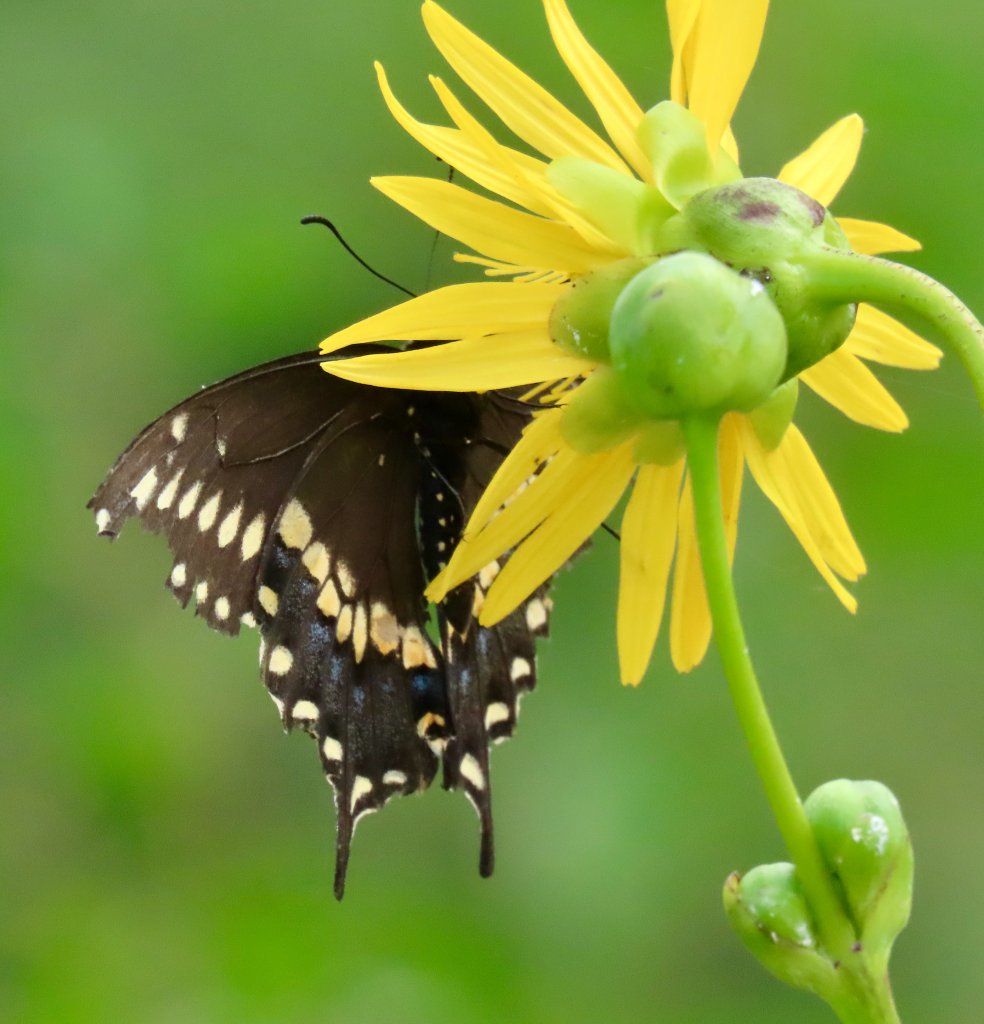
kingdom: Animalia
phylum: Arthropoda
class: Insecta
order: Lepidoptera
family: Papilionidae
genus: Papilio
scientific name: Papilio polyxenes
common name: Black Swallowtail
